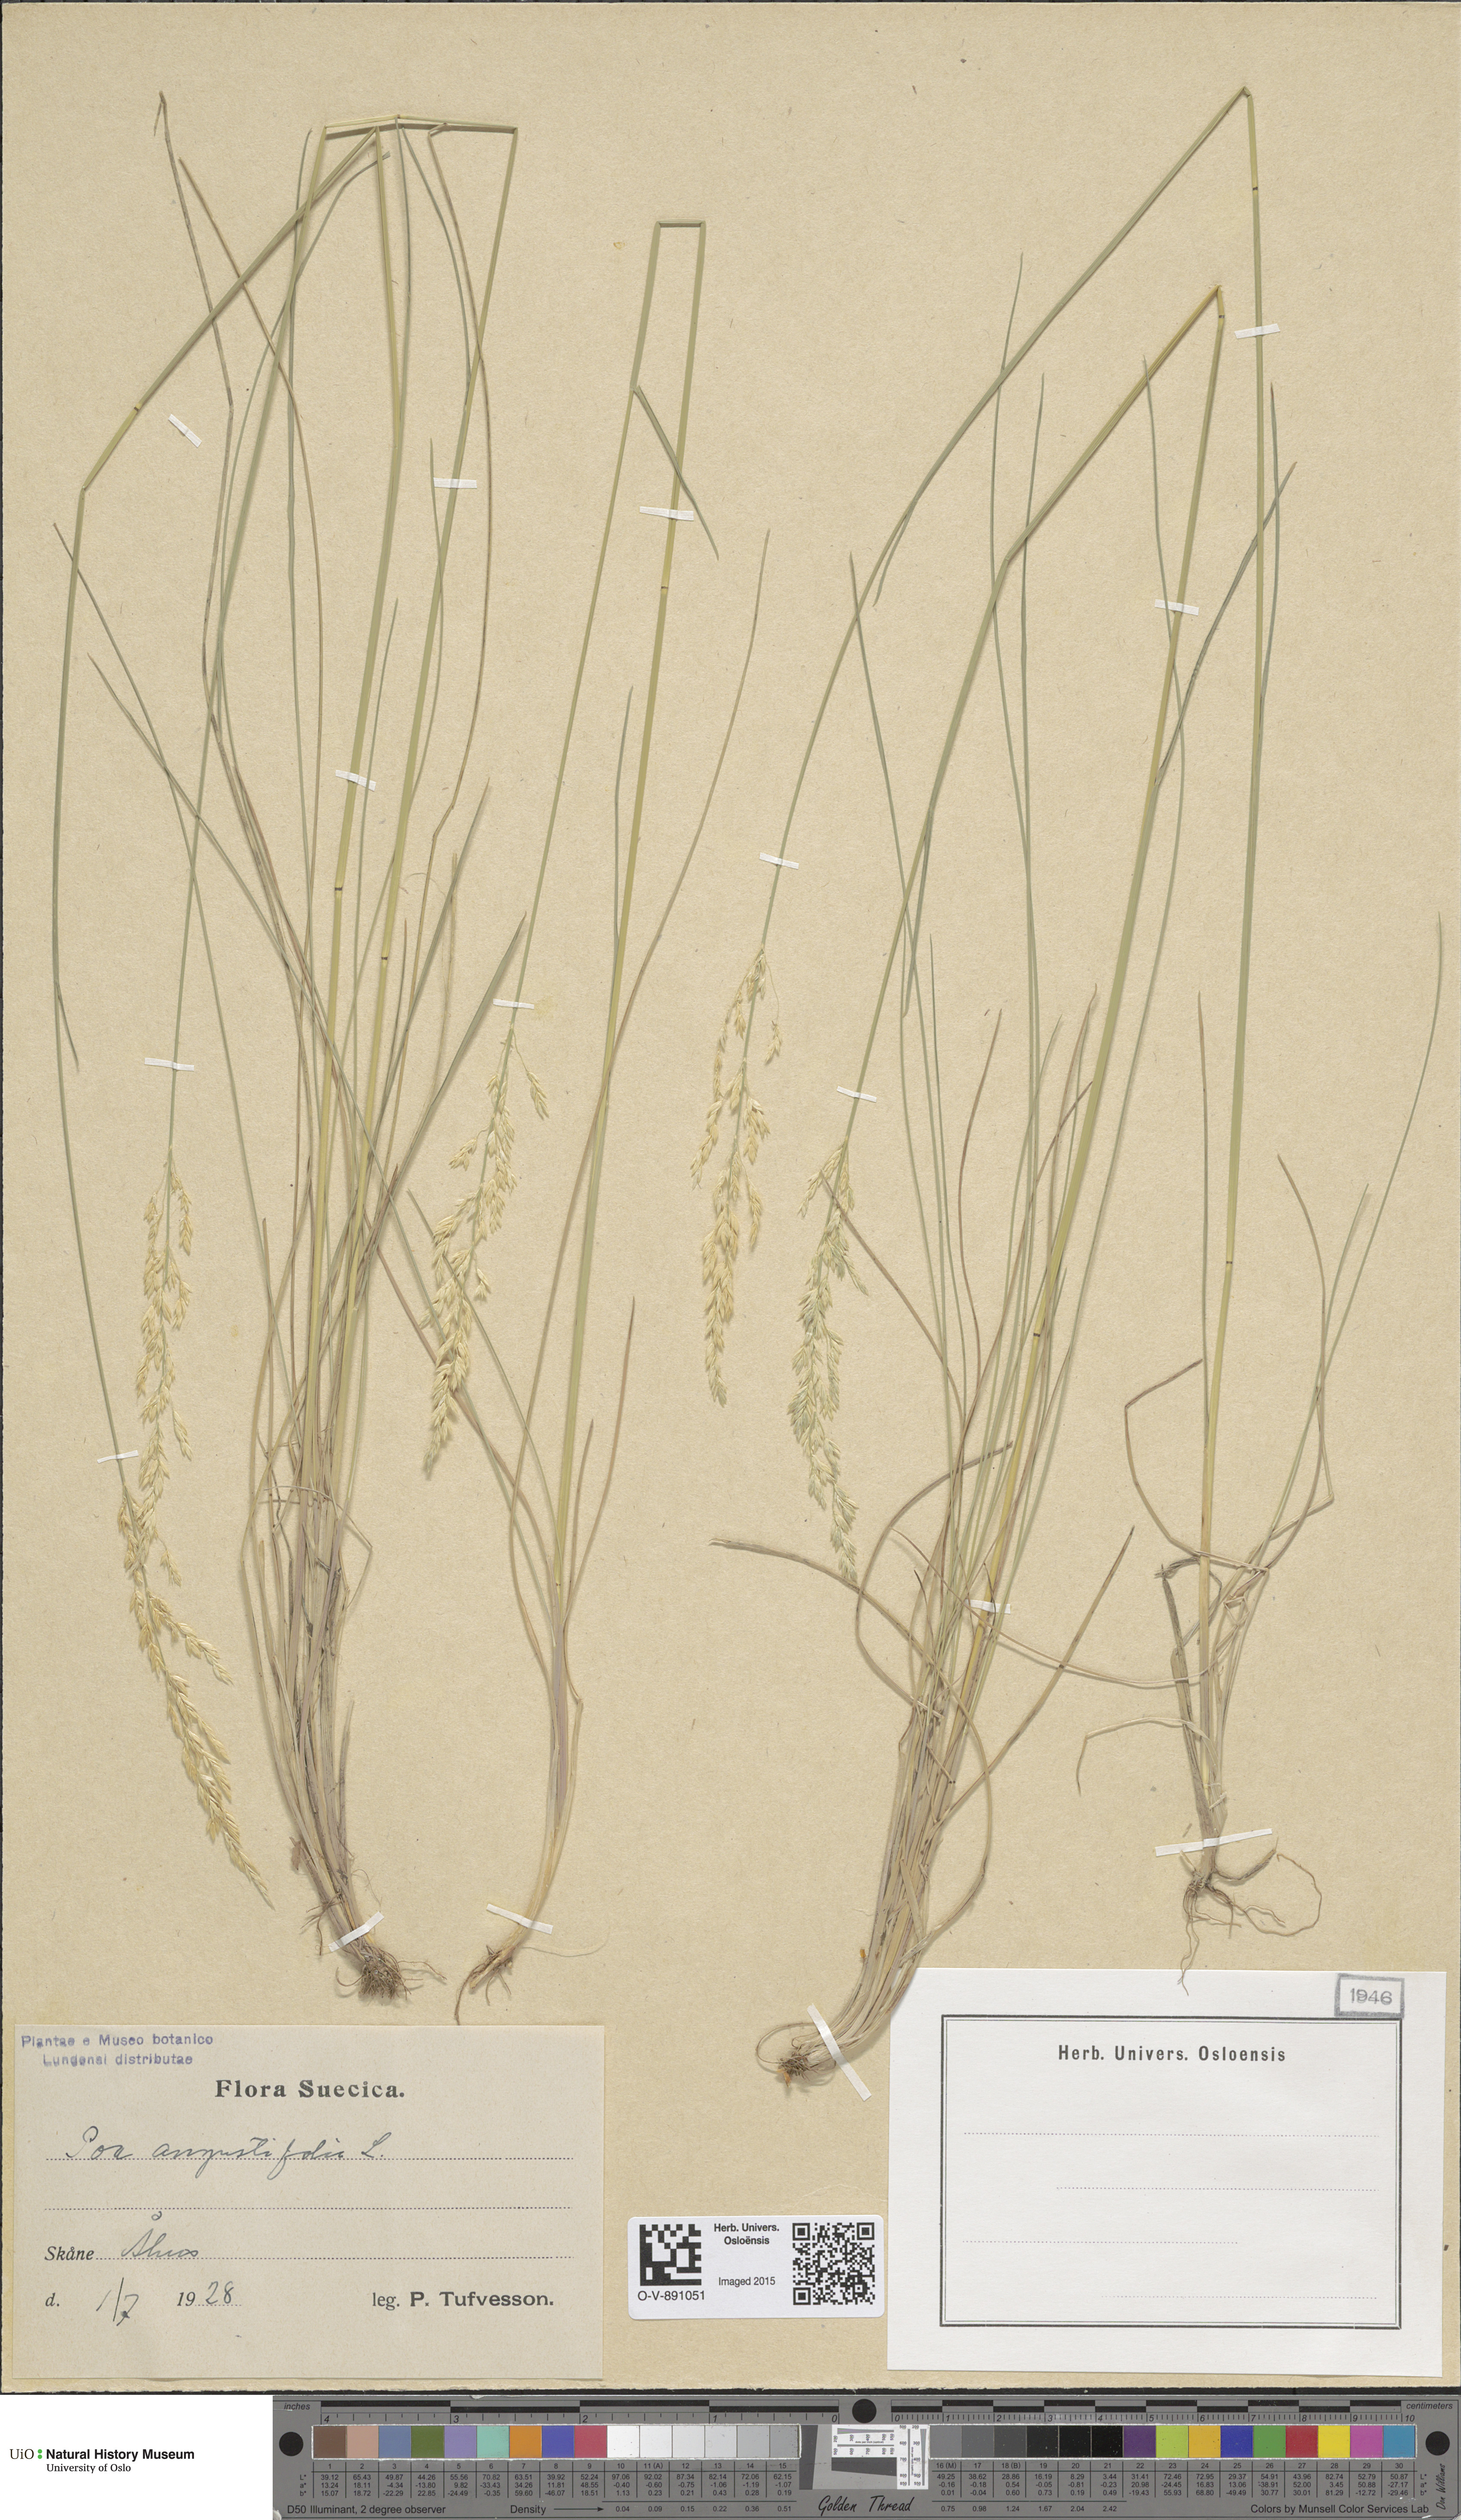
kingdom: Plantae
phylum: Tracheophyta
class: Liliopsida
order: Poales
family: Poaceae
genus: Poa
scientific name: Poa angustifolia
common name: Narrow-leaved meadow-grass
